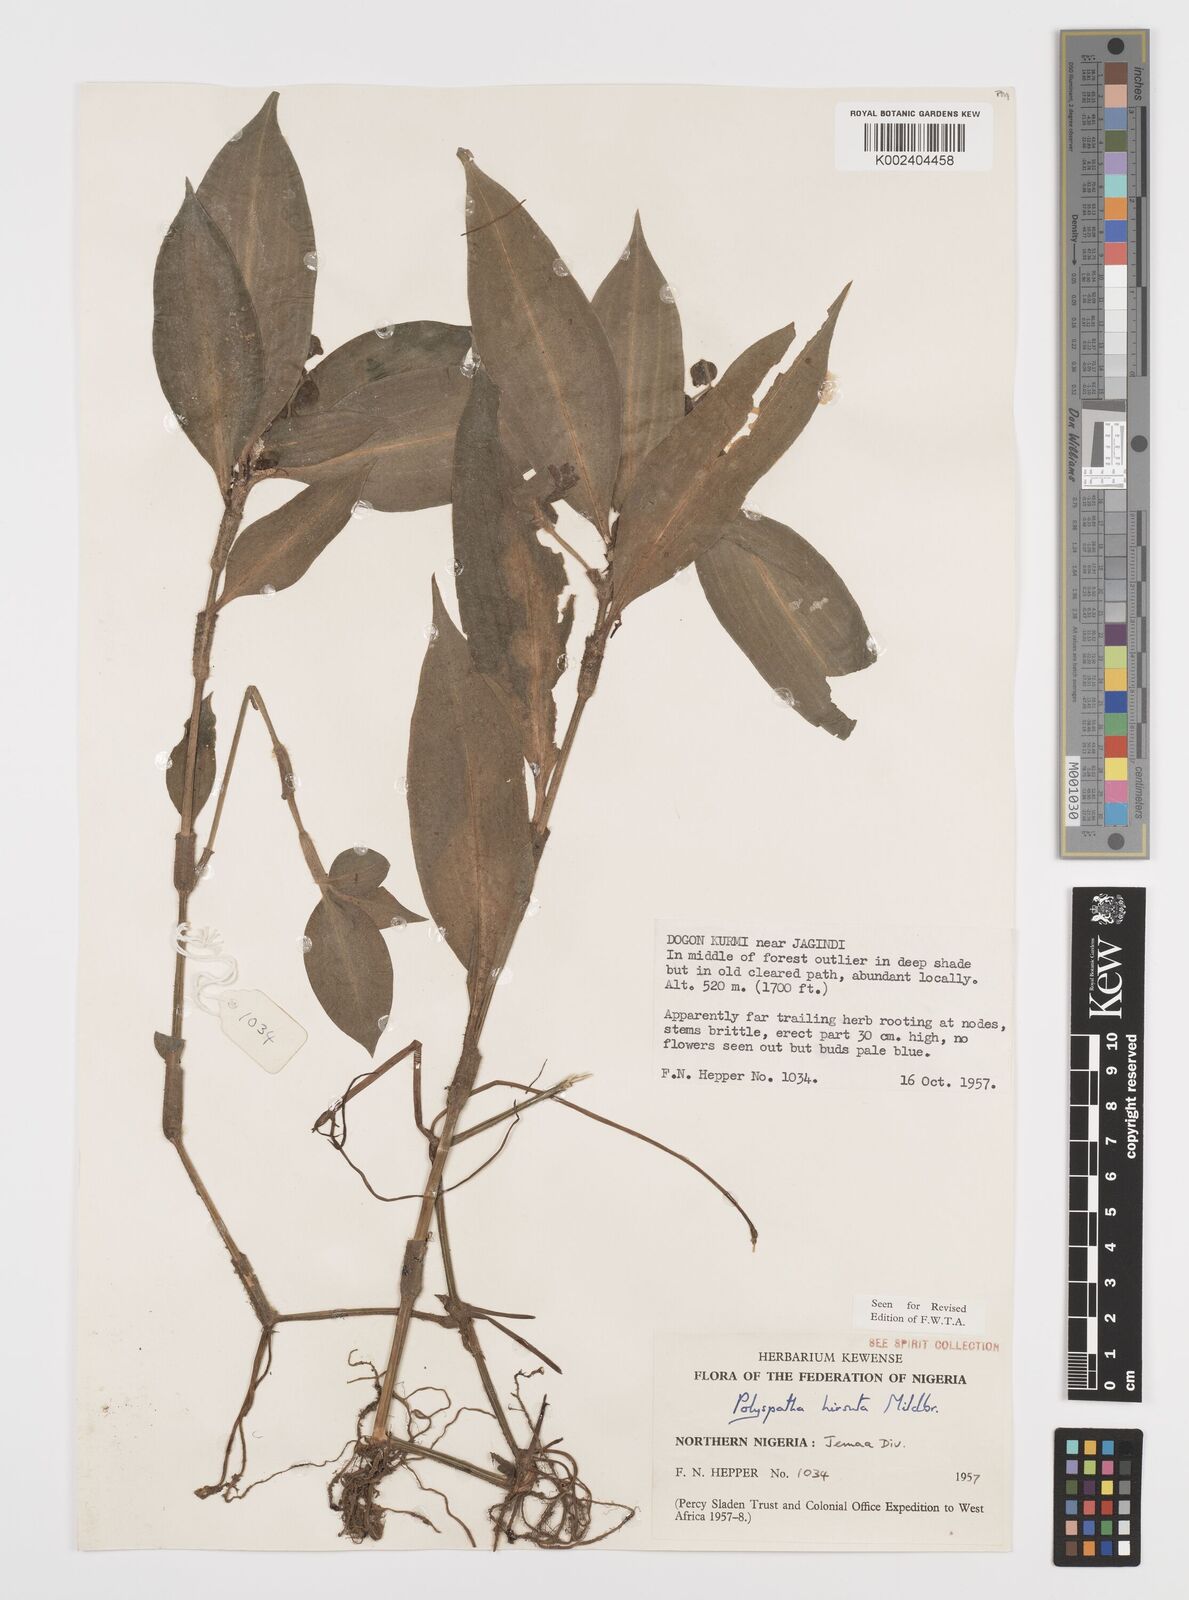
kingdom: Plantae
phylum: Tracheophyta
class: Liliopsida
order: Commelinales
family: Commelinaceae
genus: Polyspatha
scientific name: Polyspatha hirsuta
